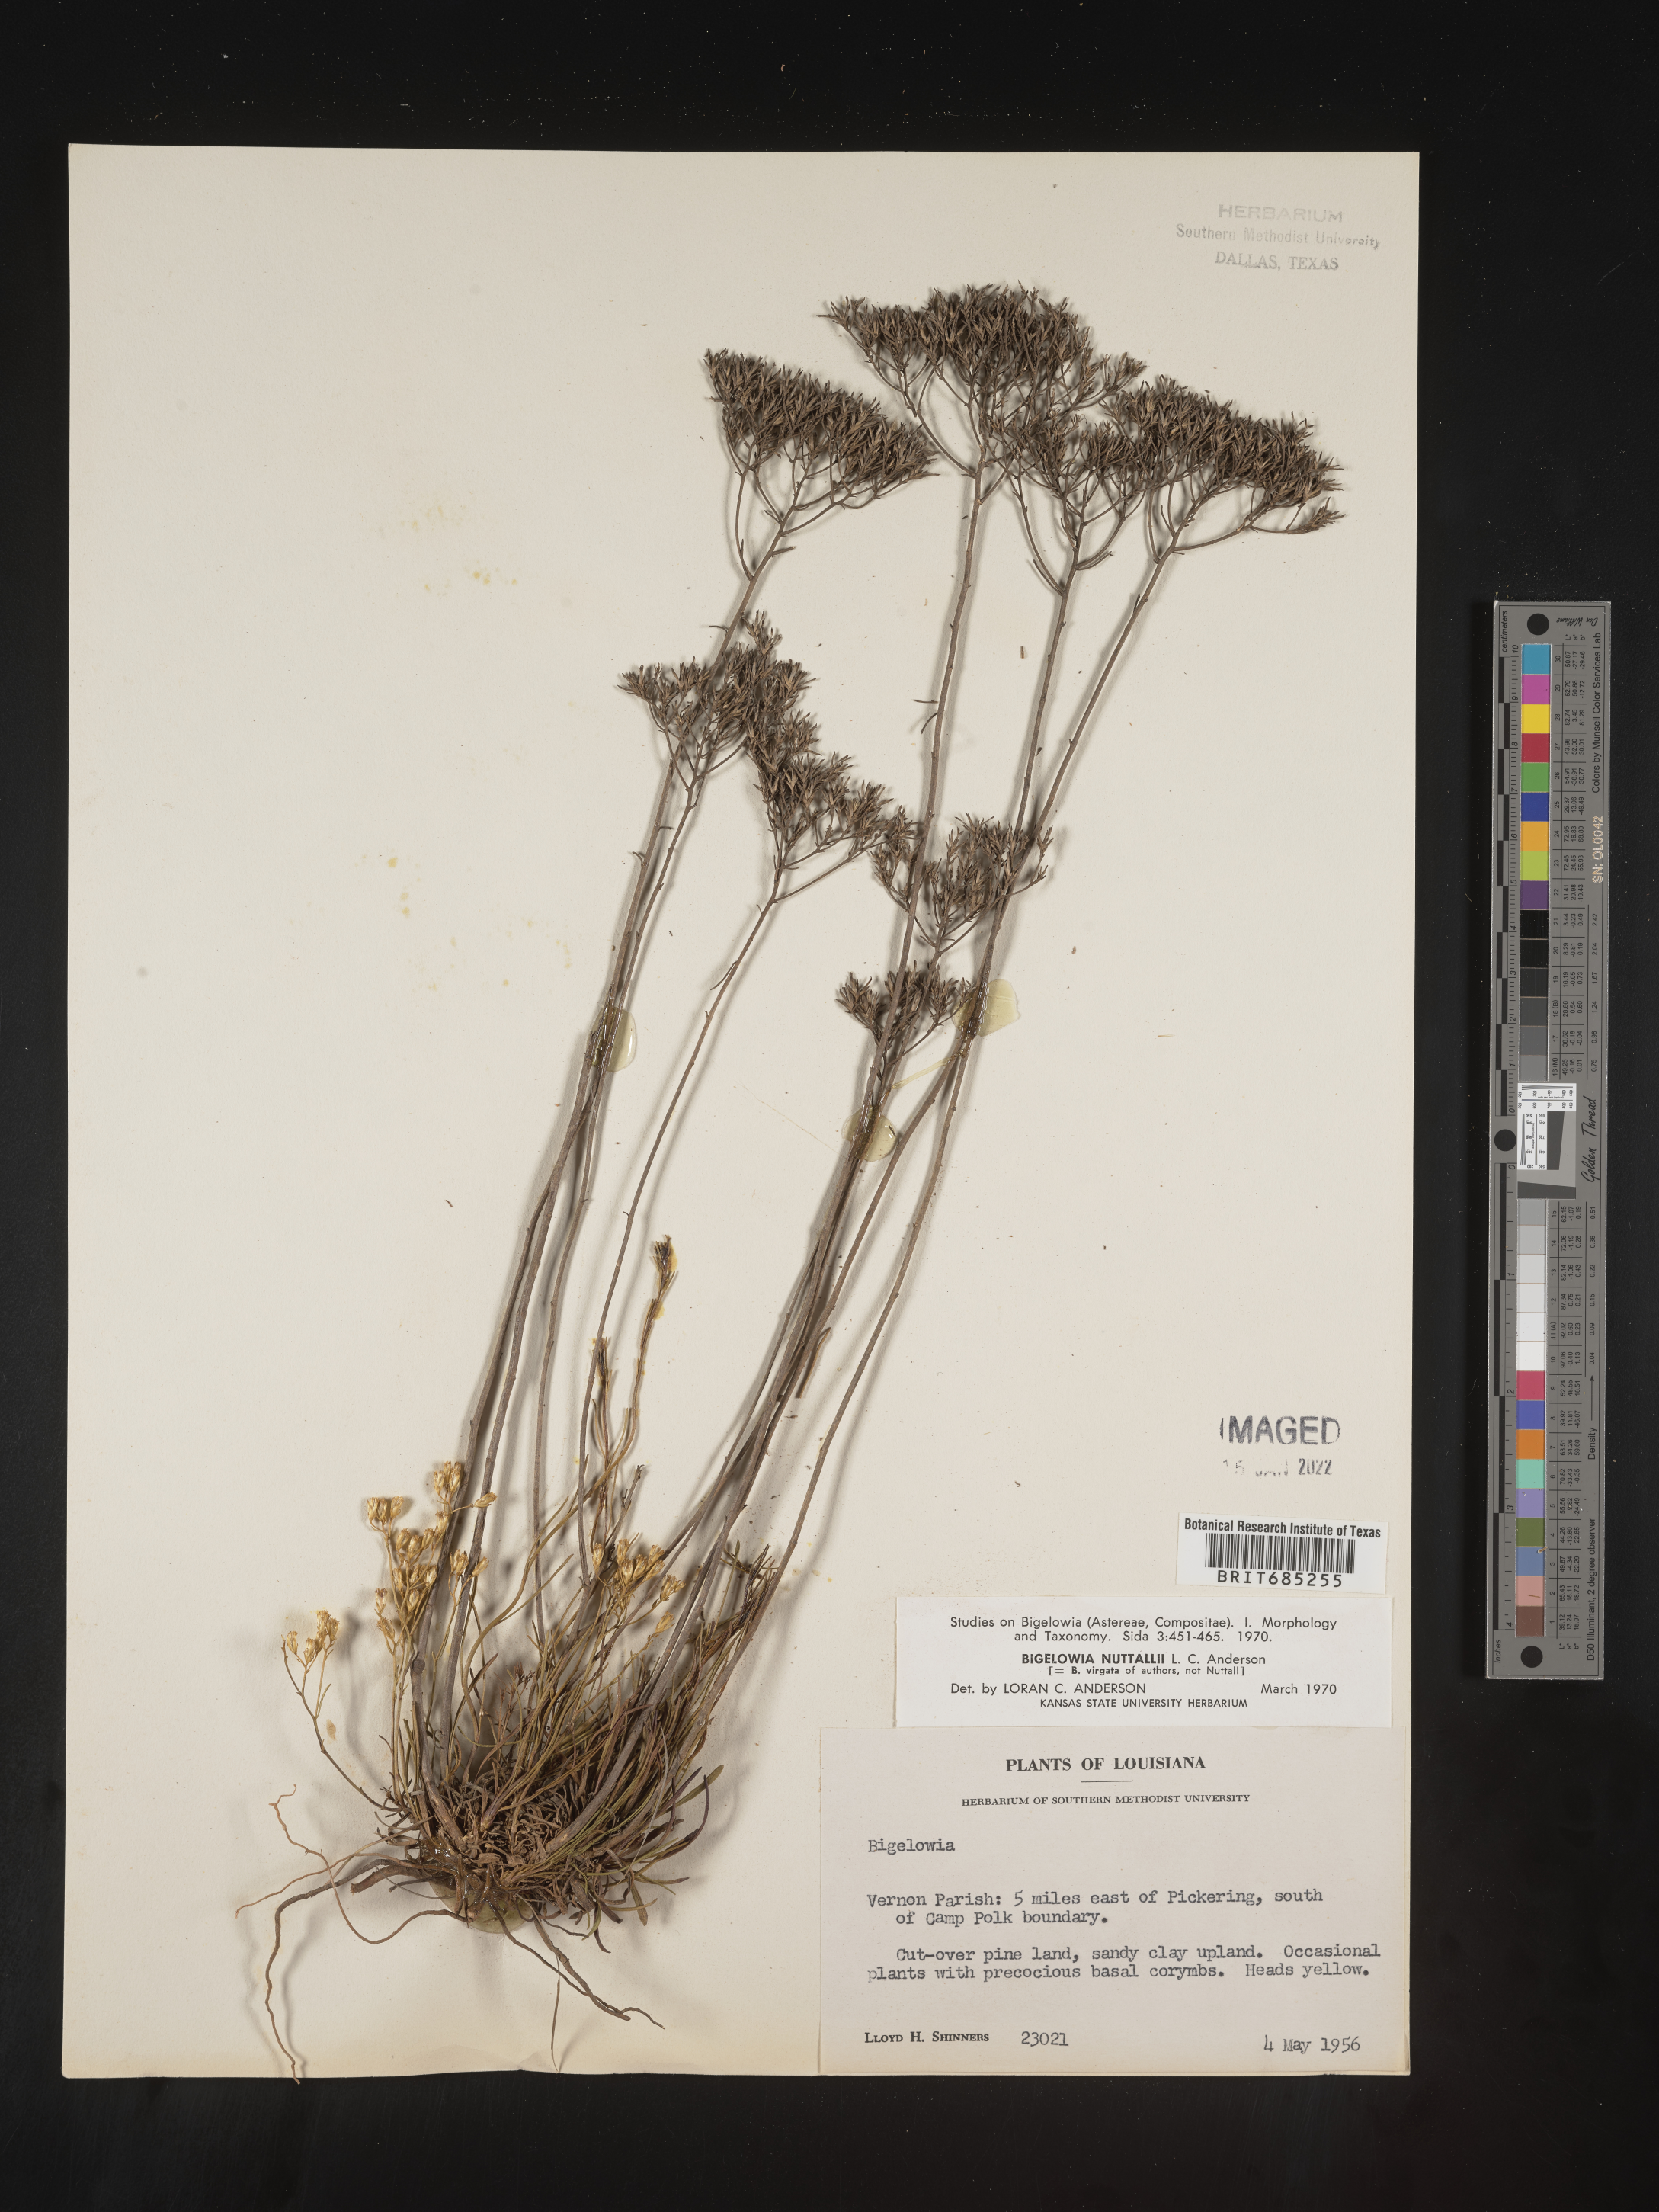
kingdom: Plantae
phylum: Tracheophyta
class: Magnoliopsida
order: Asterales
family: Asteraceae
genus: Bigelowia
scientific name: Bigelowia nuttallii
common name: Nuttall's rayless-goldenrod
